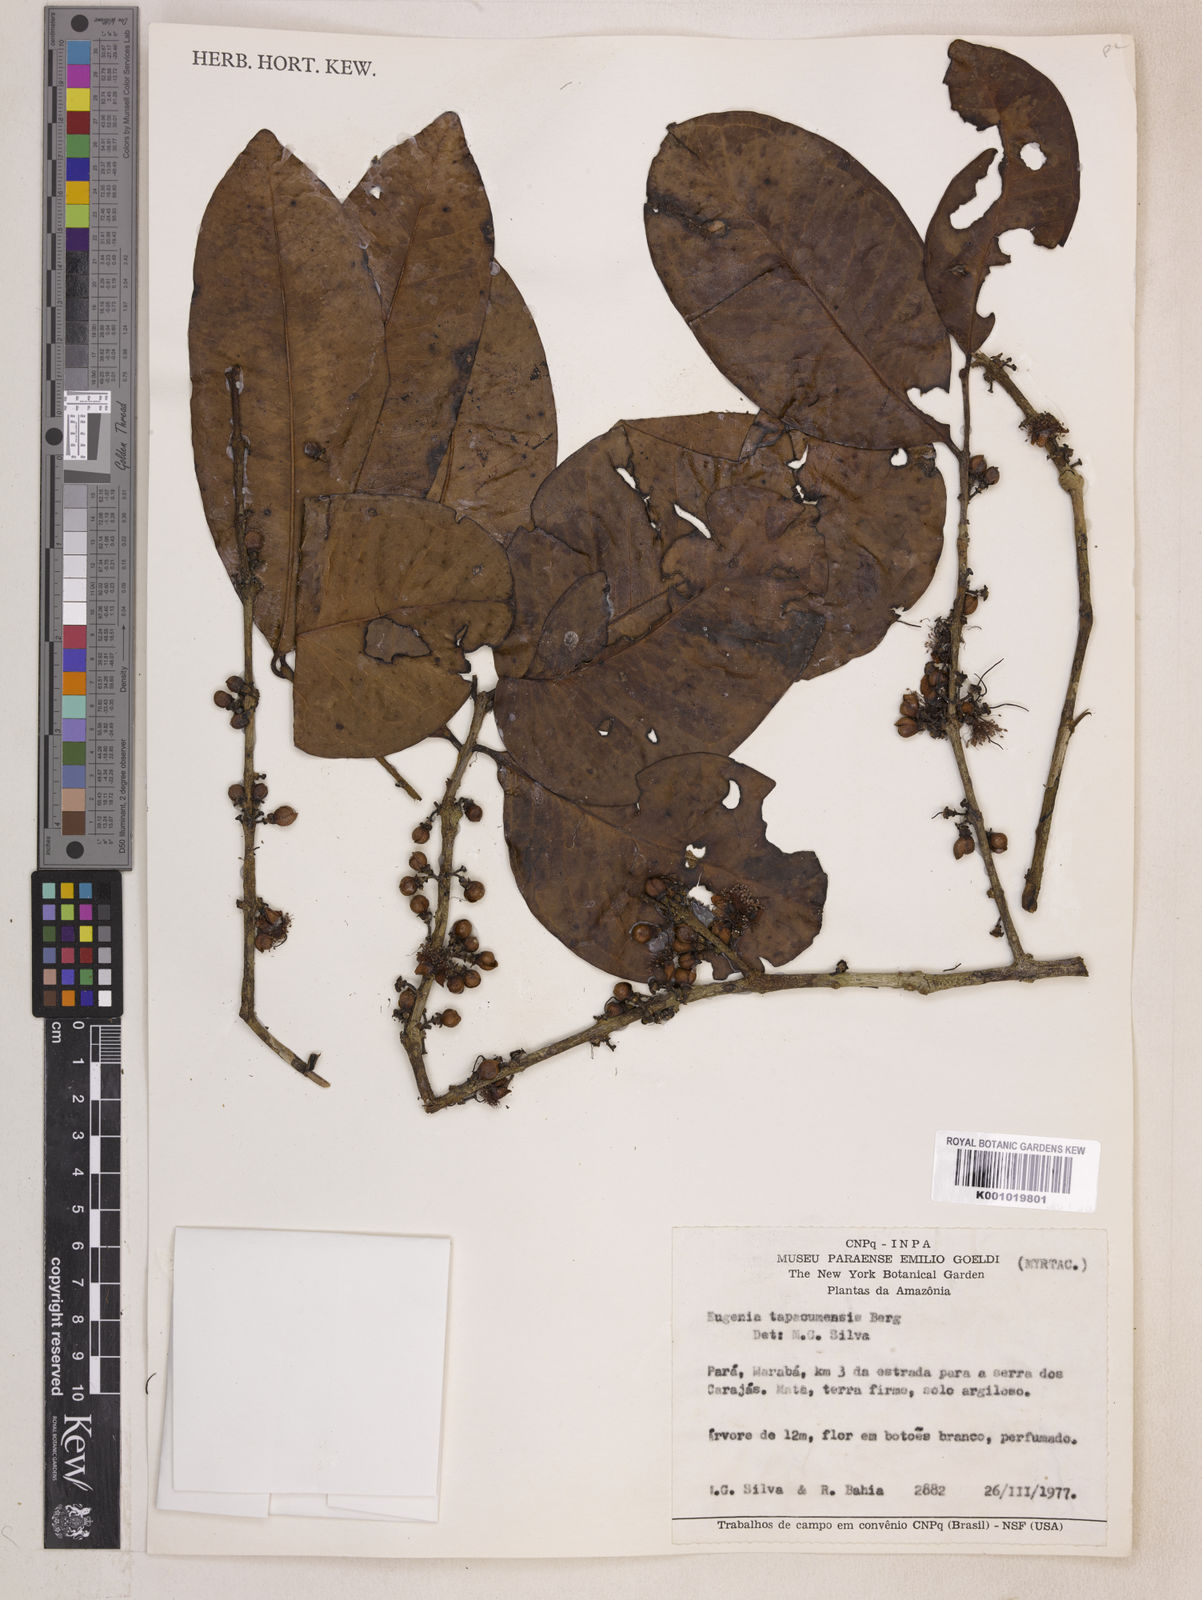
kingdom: Plantae
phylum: Tracheophyta
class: Magnoliopsida
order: Myrtales
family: Myrtaceae
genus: Eugenia
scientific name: Eugenia stictopetala
